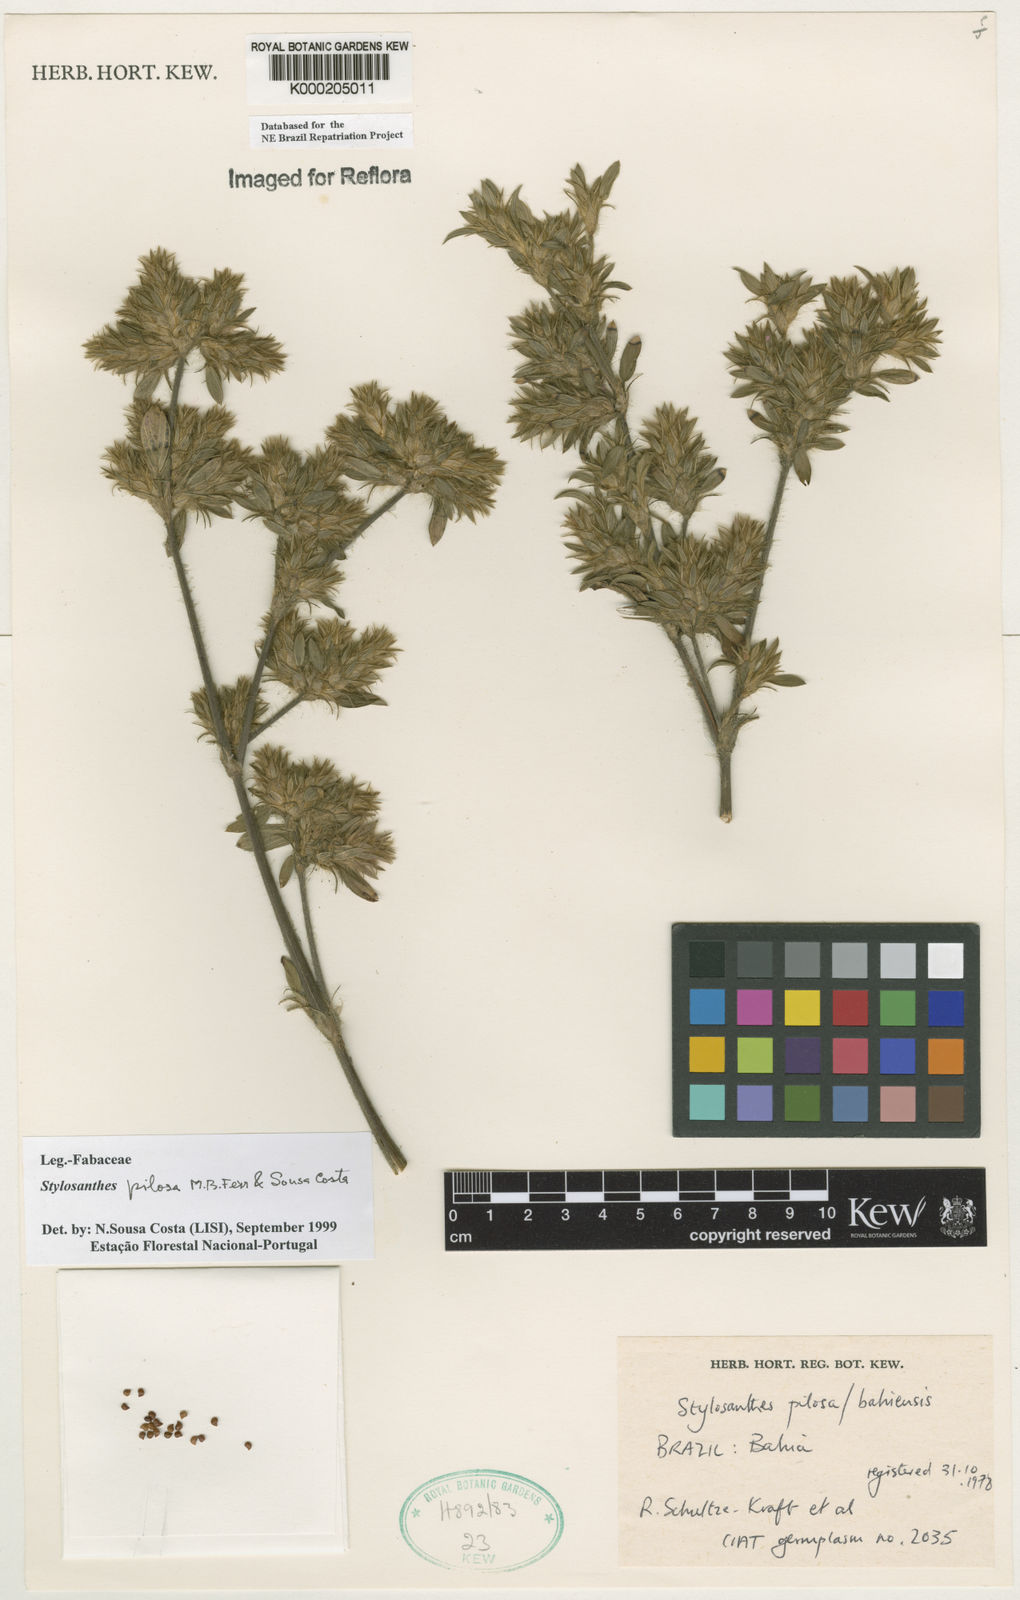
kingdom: Plantae
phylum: Tracheophyta
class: Magnoliopsida
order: Fabales
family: Fabaceae
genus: Stylosanthes
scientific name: Stylosanthes viscosa
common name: Viscid pencil-flower
